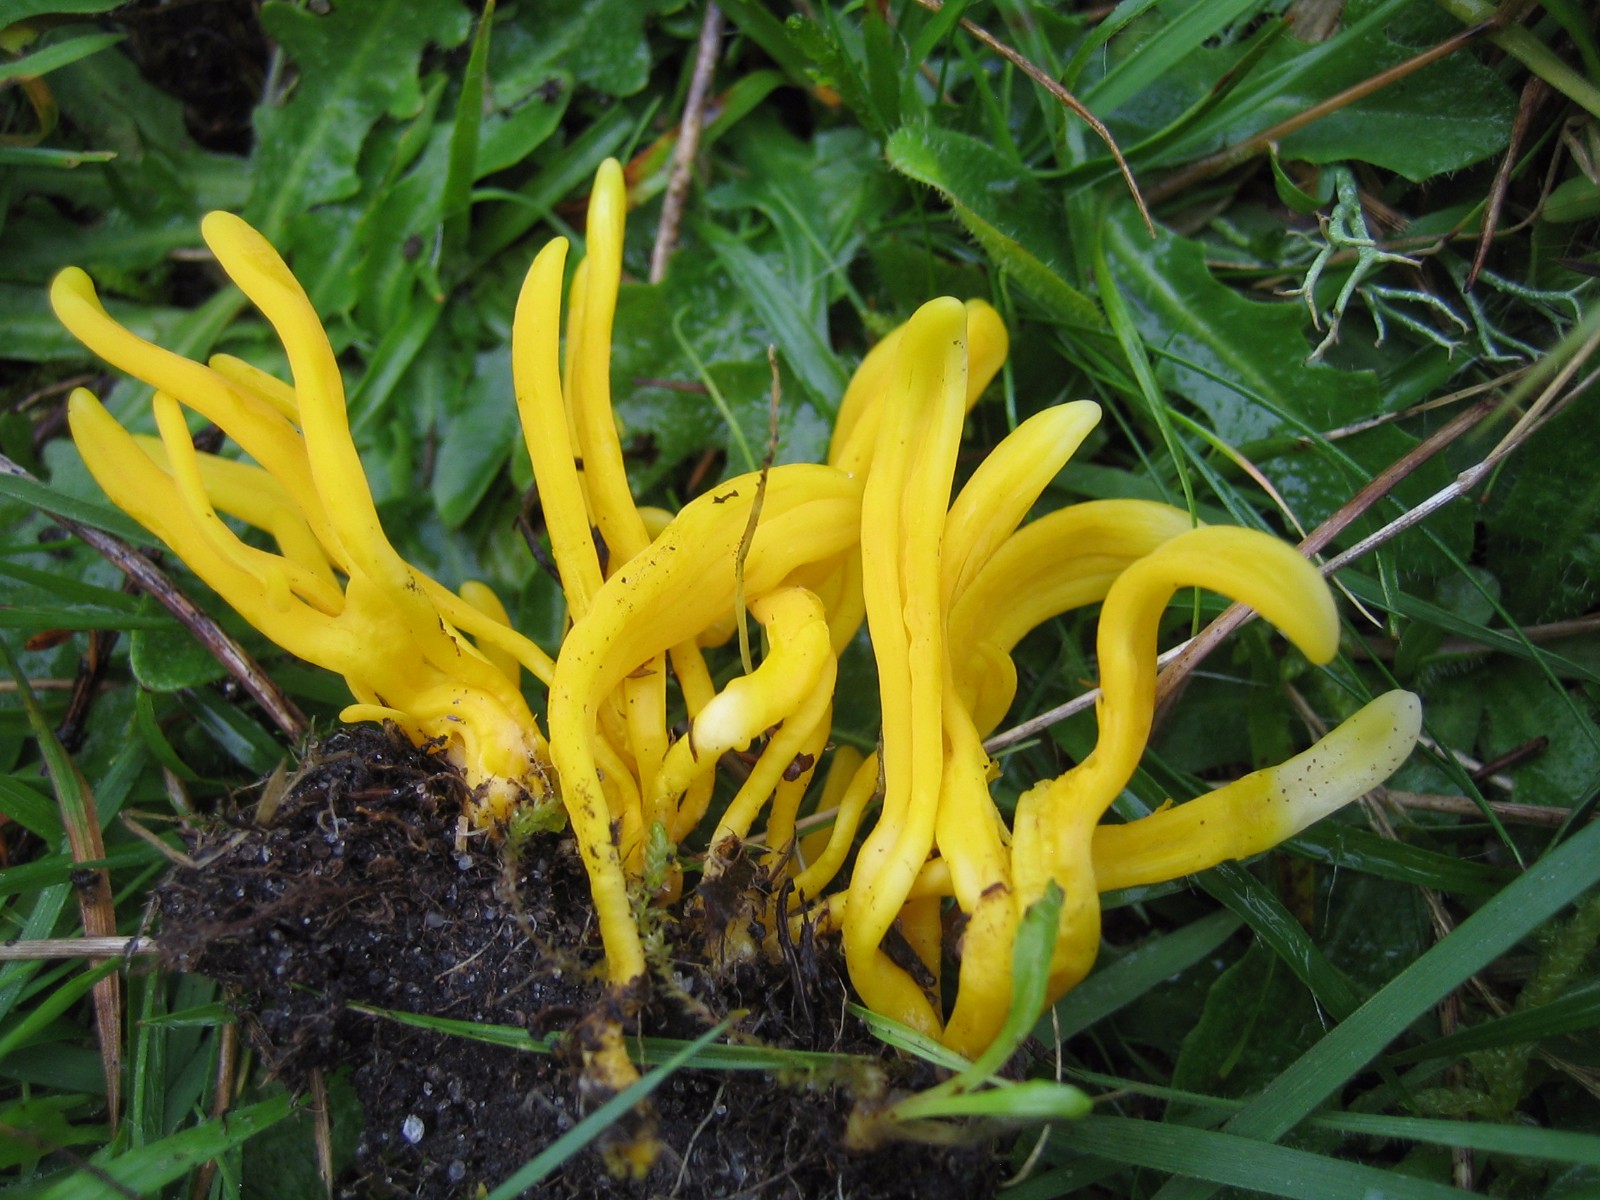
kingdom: Fungi
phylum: Basidiomycota
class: Agaricomycetes
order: Agaricales
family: Clavariaceae
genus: Clavulinopsis
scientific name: Clavulinopsis
